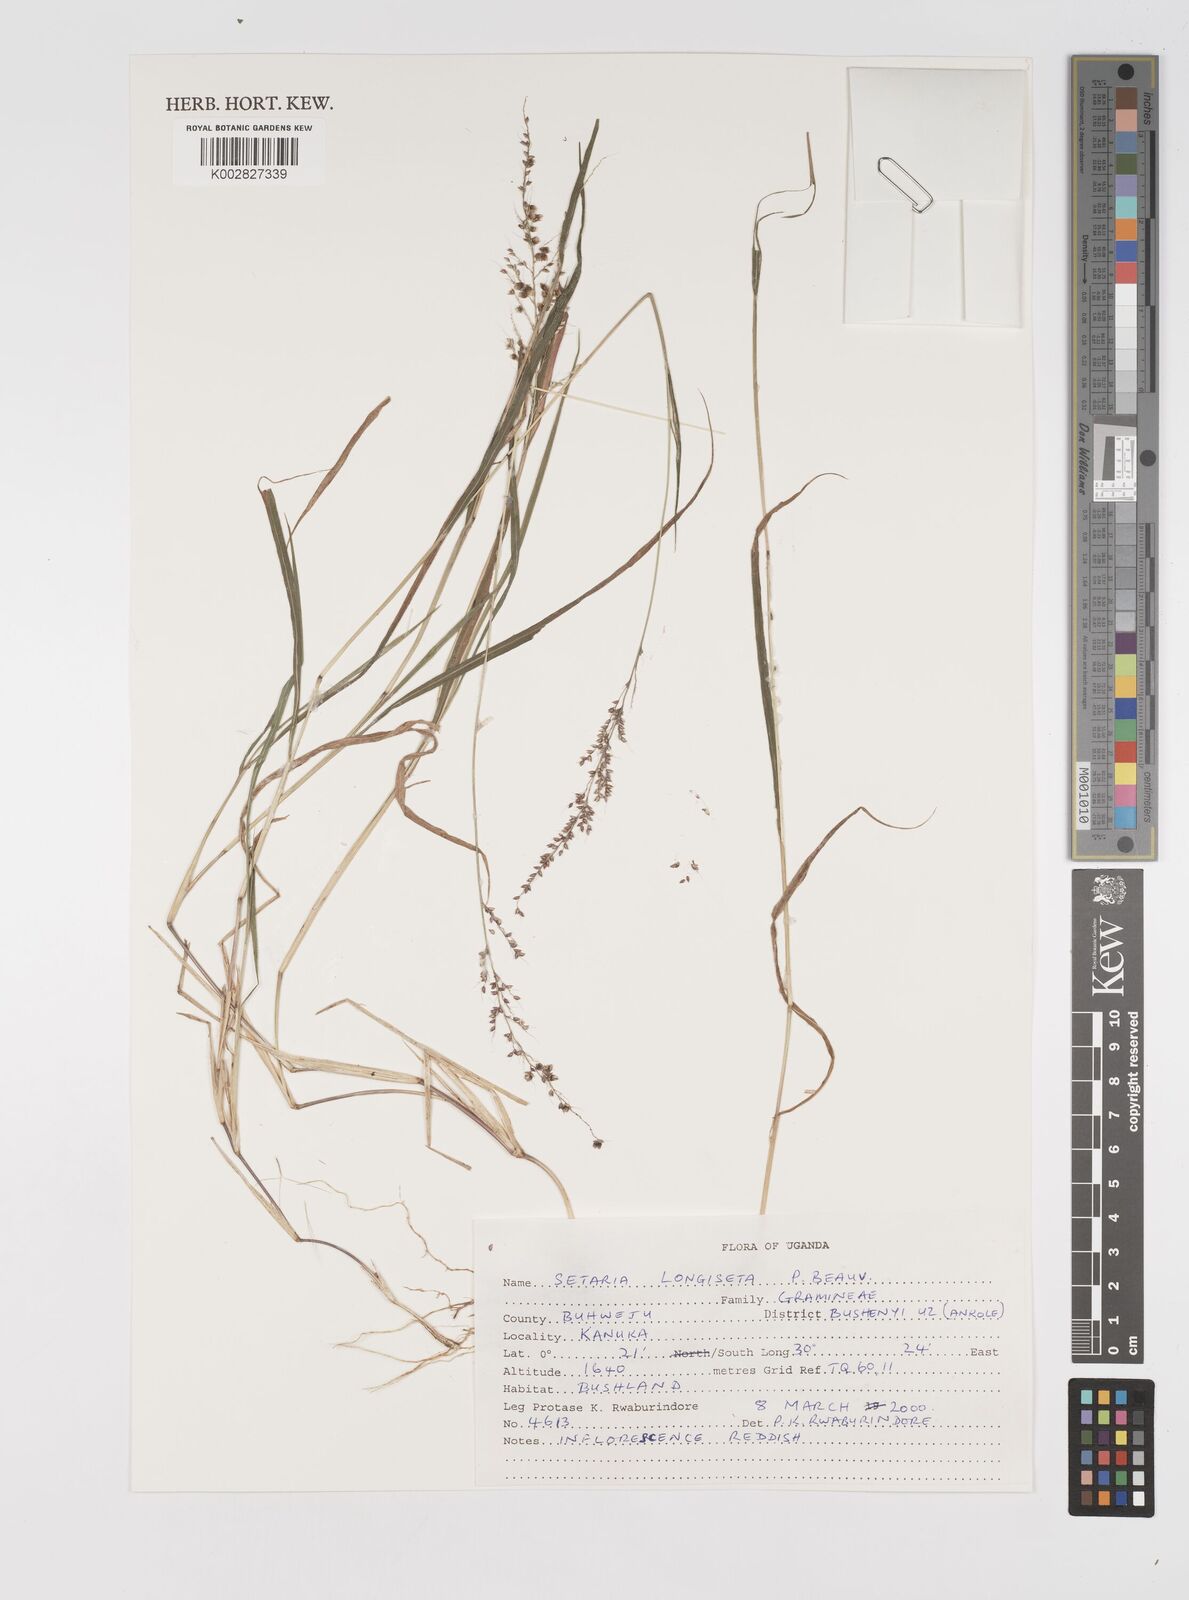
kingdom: Plantae
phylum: Tracheophyta
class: Liliopsida
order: Poales
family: Poaceae
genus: Setaria
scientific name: Setaria longiseta
